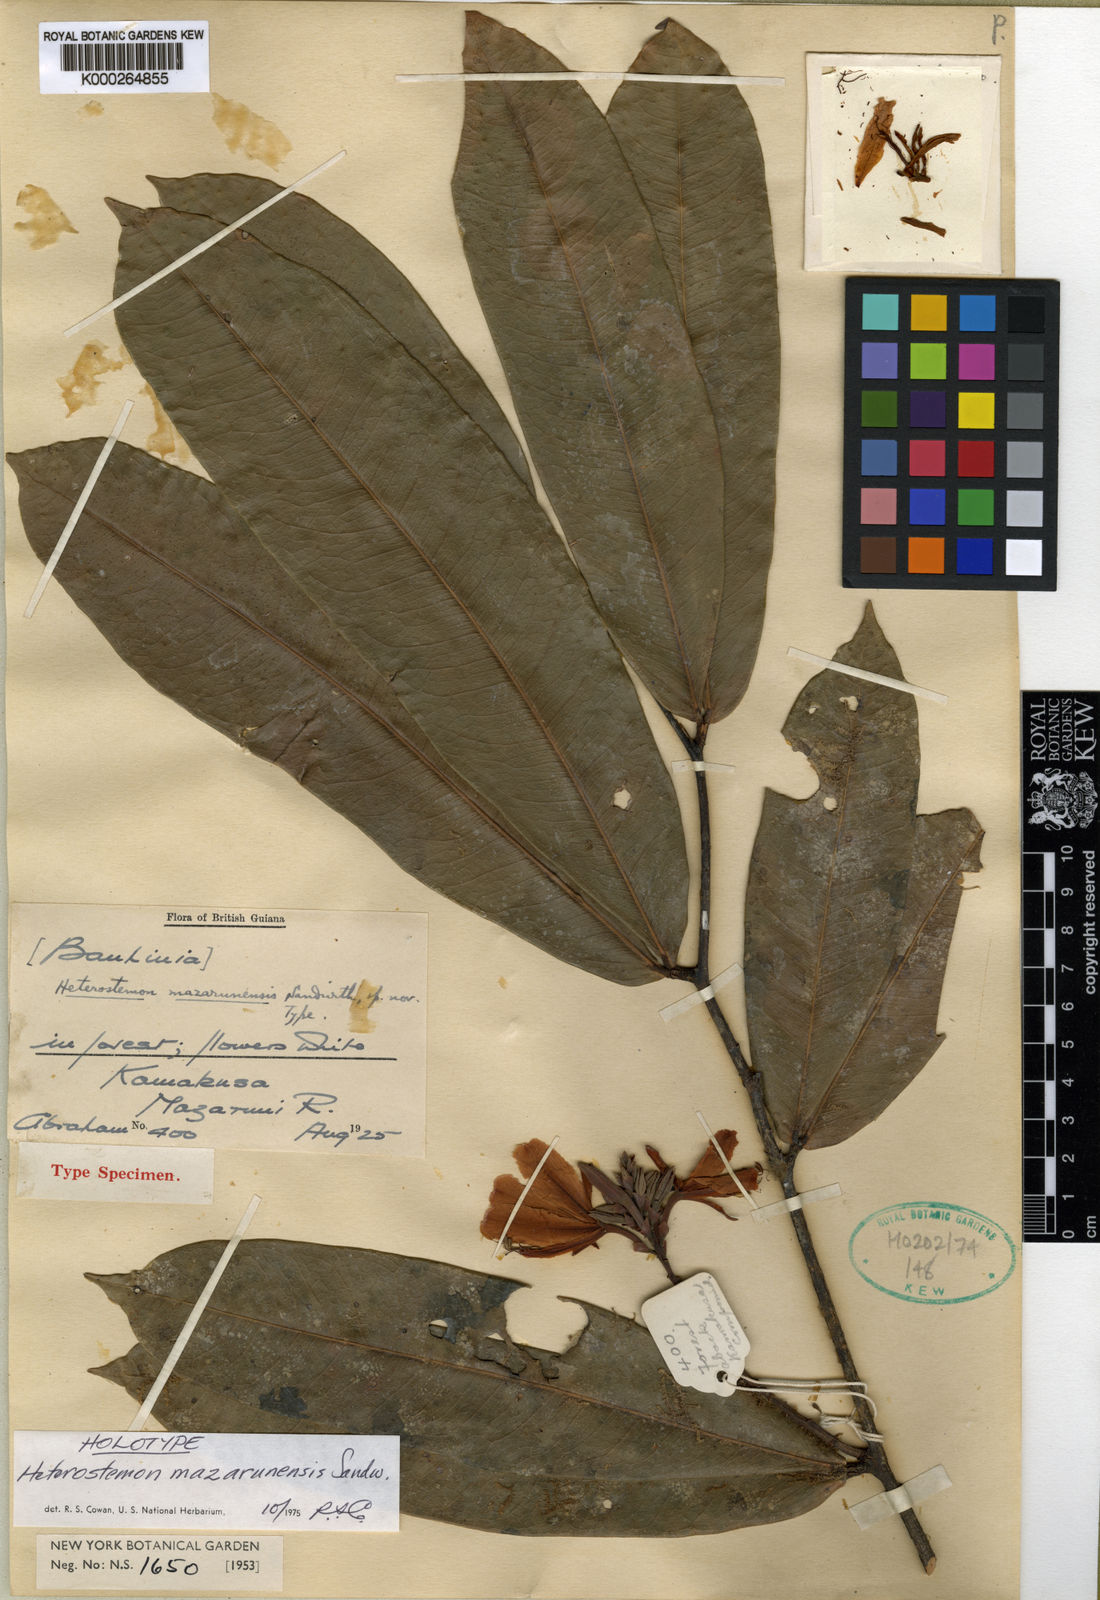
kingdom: Plantae
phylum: Tracheophyta
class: Magnoliopsida
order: Fabales
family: Fabaceae
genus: Heterostemon
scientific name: Heterostemon mazarunensis
